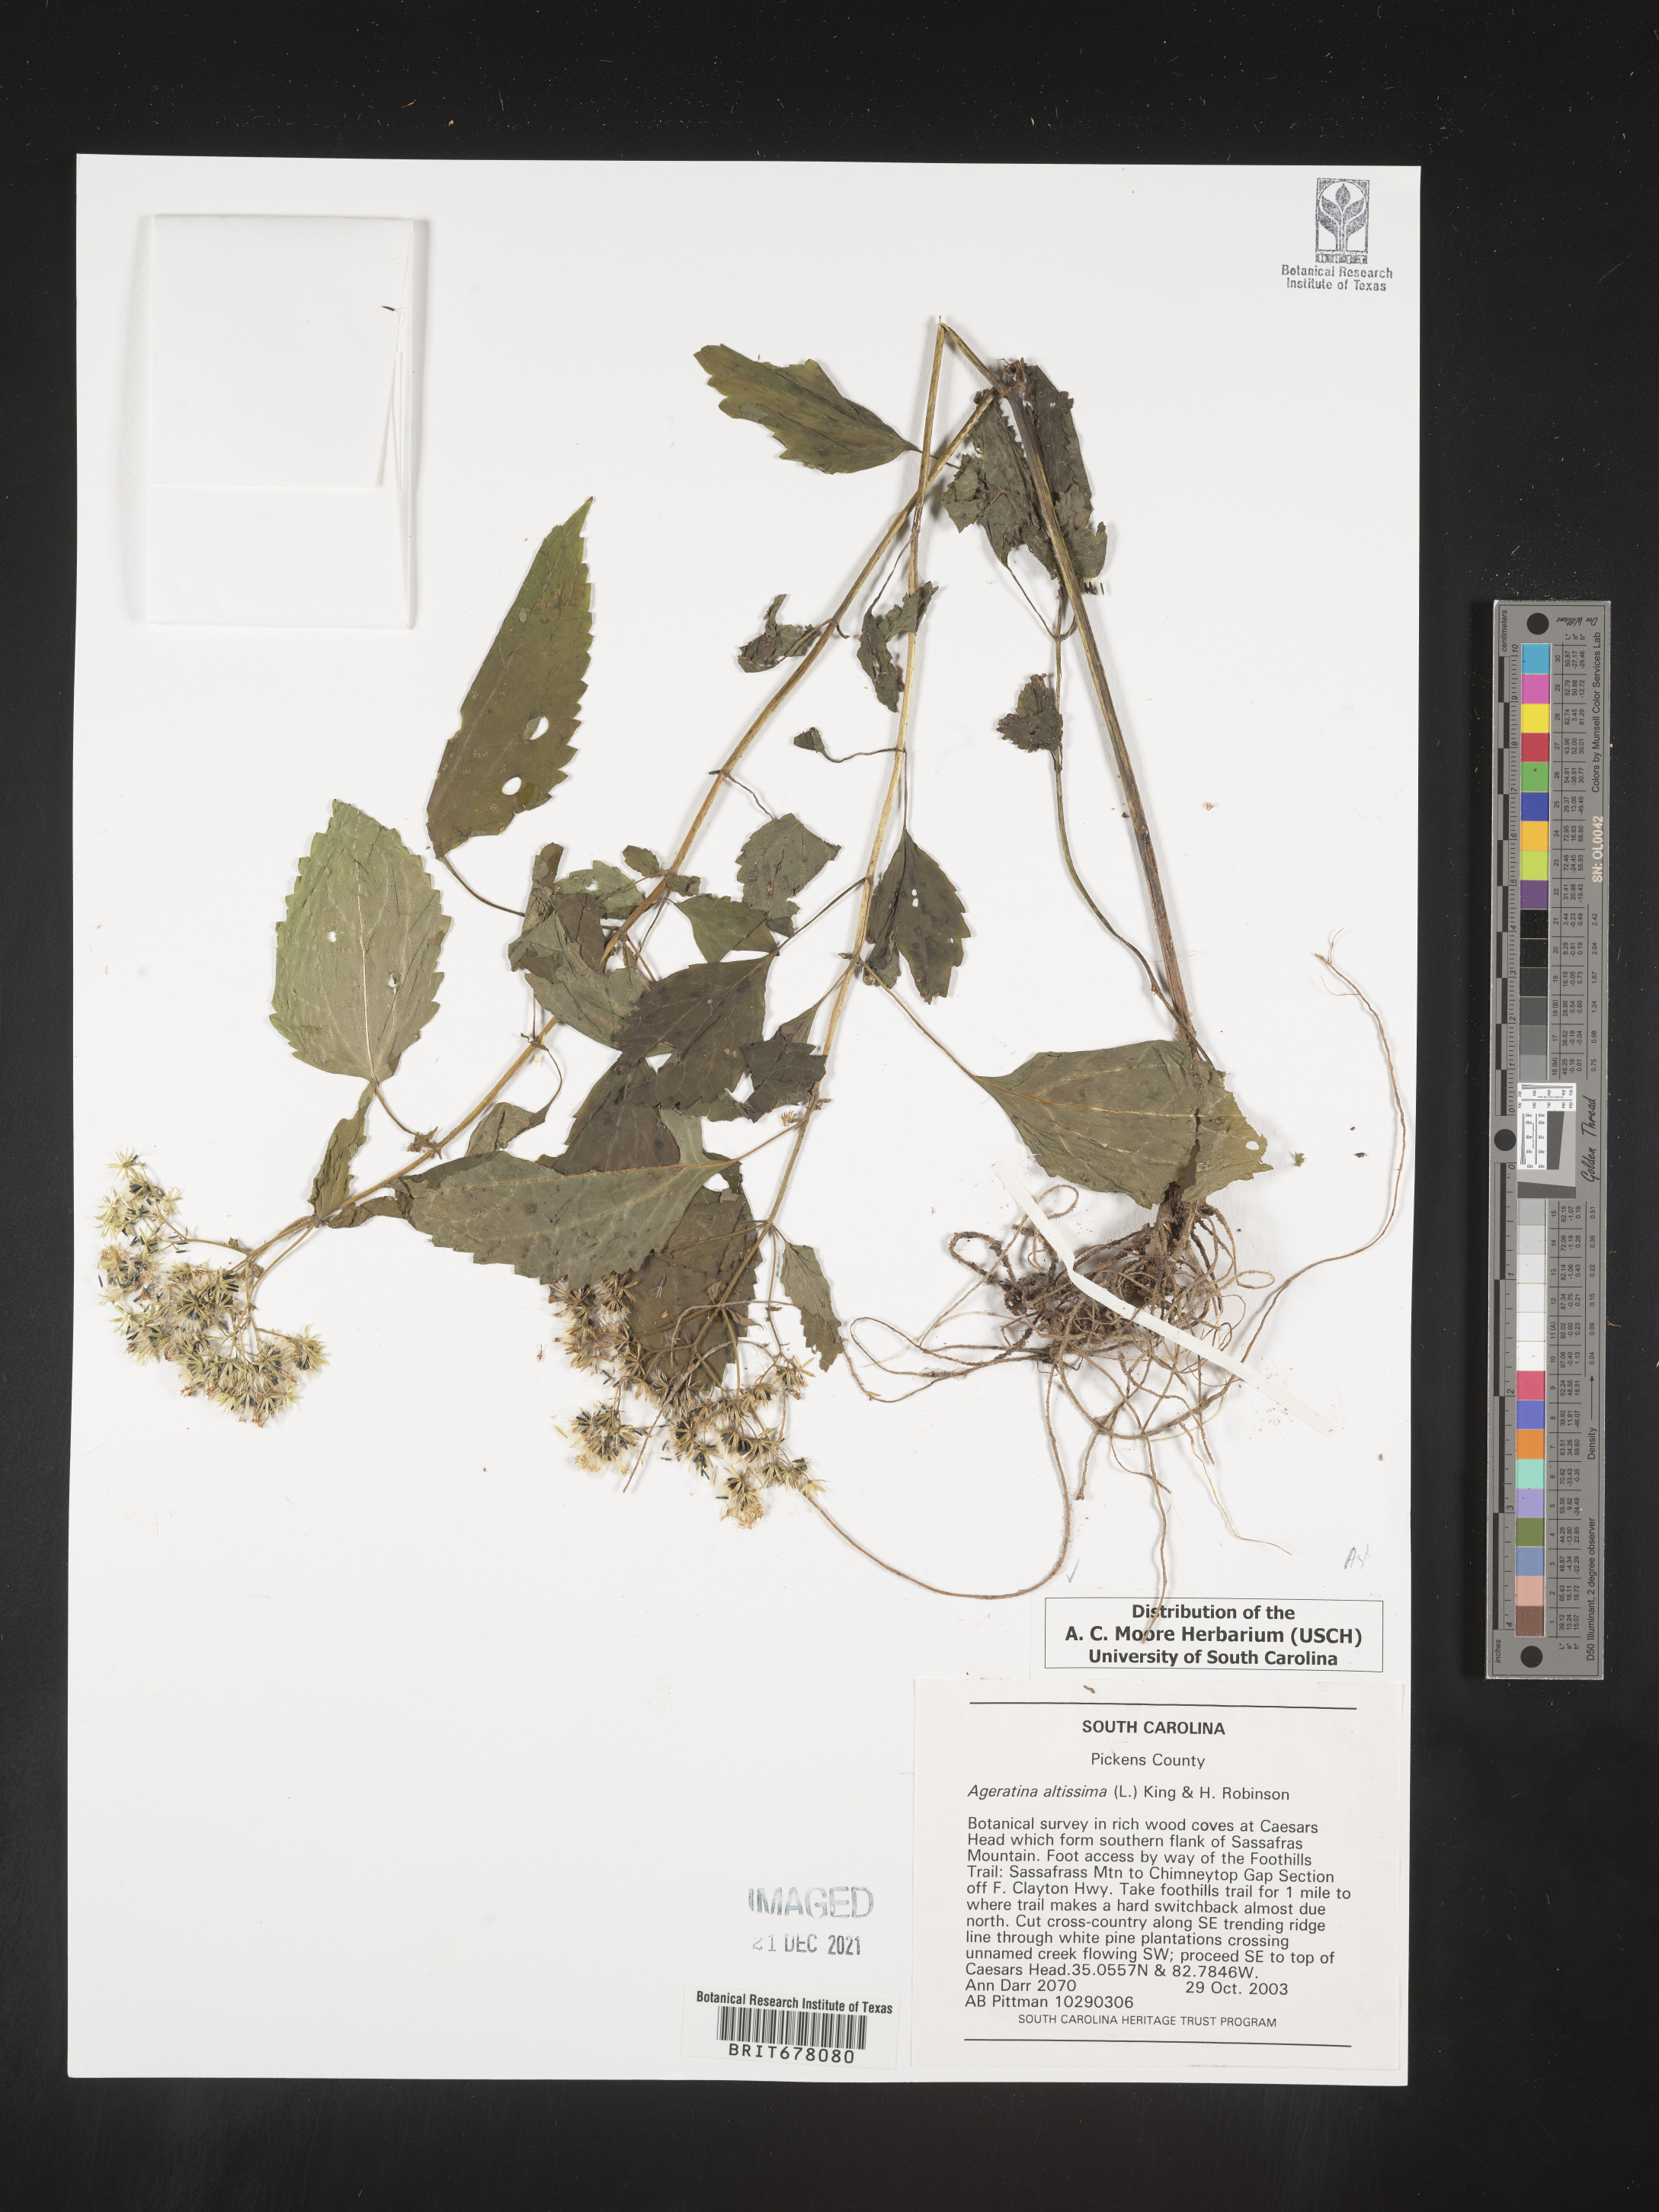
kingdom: Plantae
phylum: Tracheophyta
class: Magnoliopsida
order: Asterales
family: Asteraceae
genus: Eupatorium
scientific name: Eupatorium
